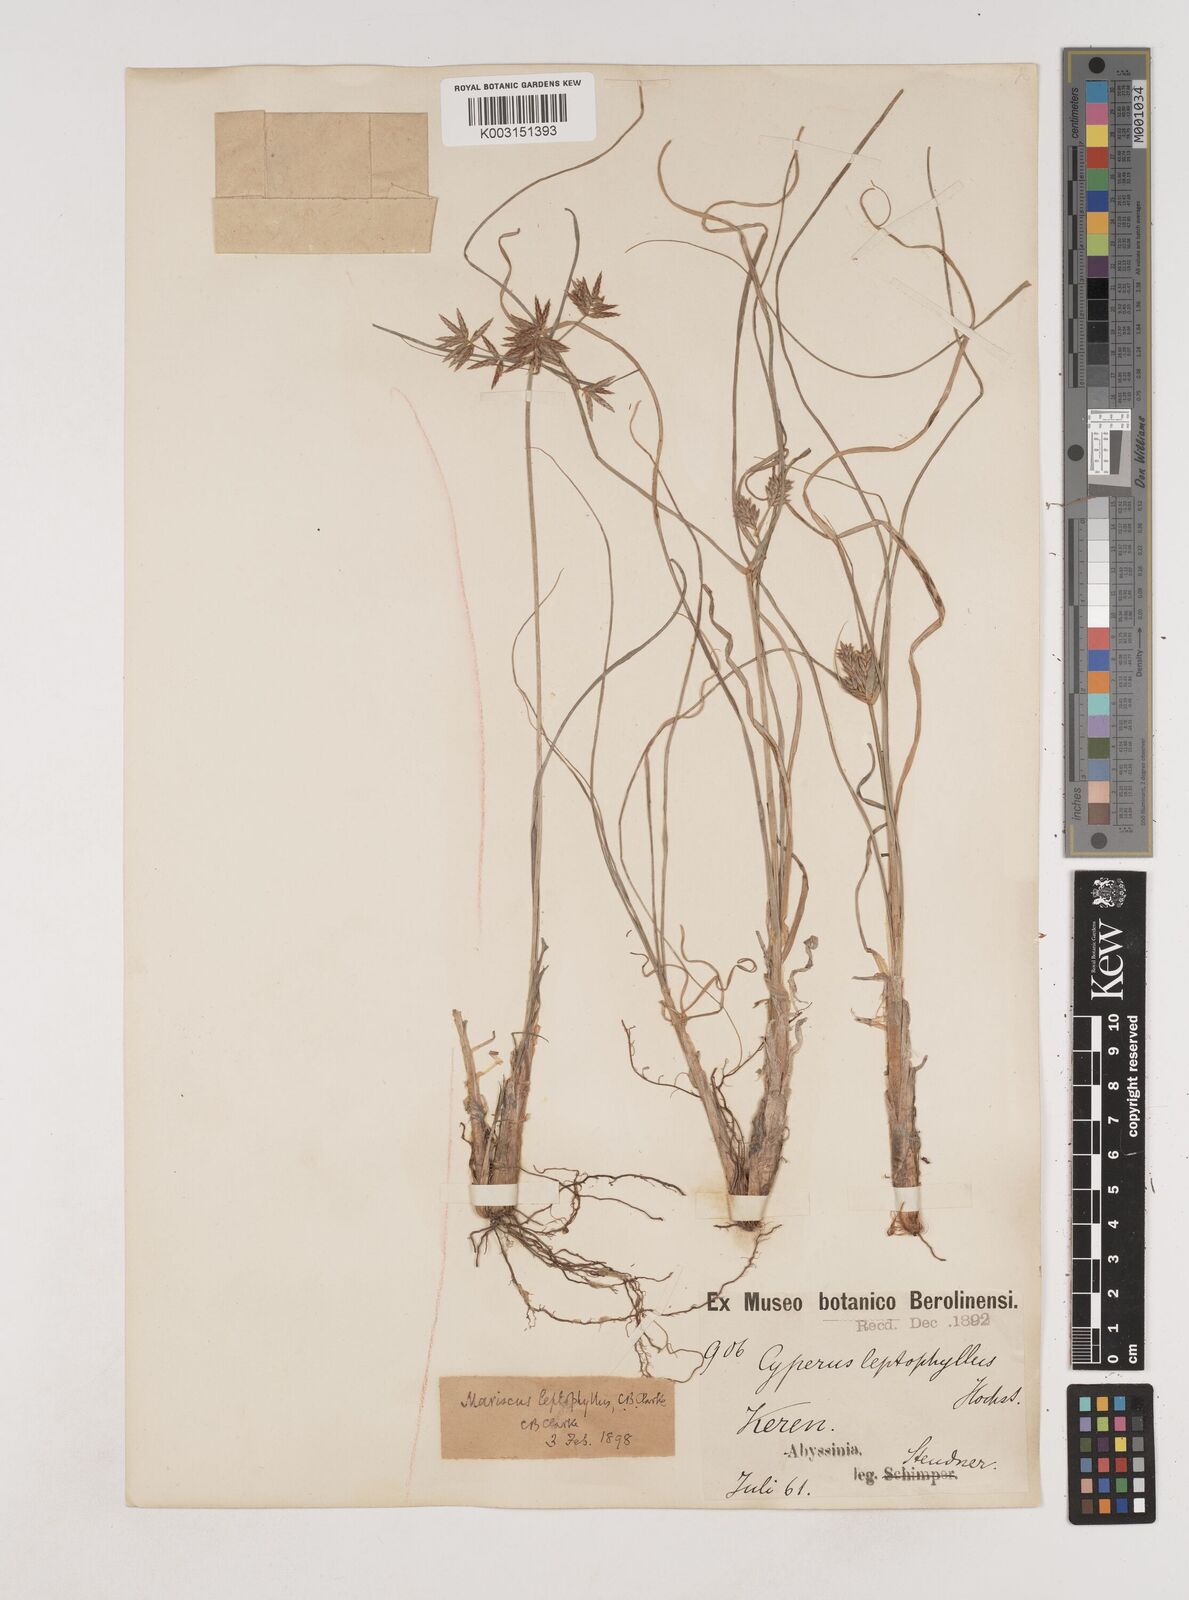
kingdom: Plantae
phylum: Tracheophyta
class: Liliopsida
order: Poales
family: Cyperaceae
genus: Cyperus
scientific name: Cyperus amauropus
